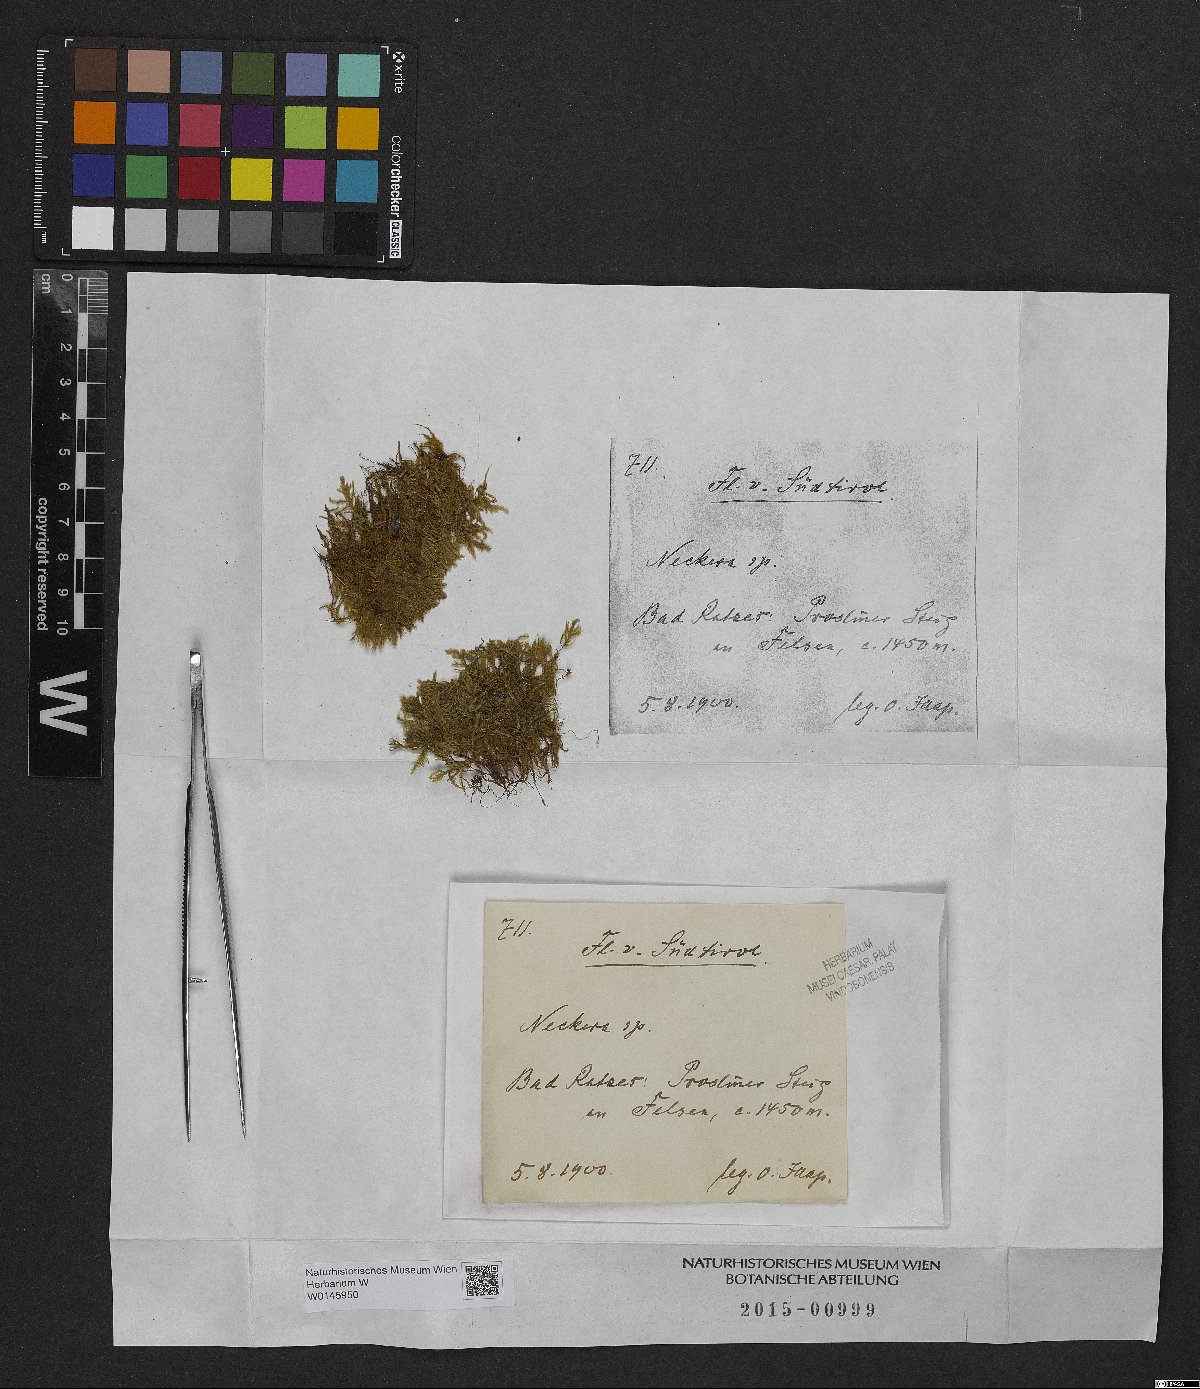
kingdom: Plantae
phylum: Bryophyta
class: Bryopsida
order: Hypnales
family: Neckeraceae
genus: Neckera
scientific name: Neckera
